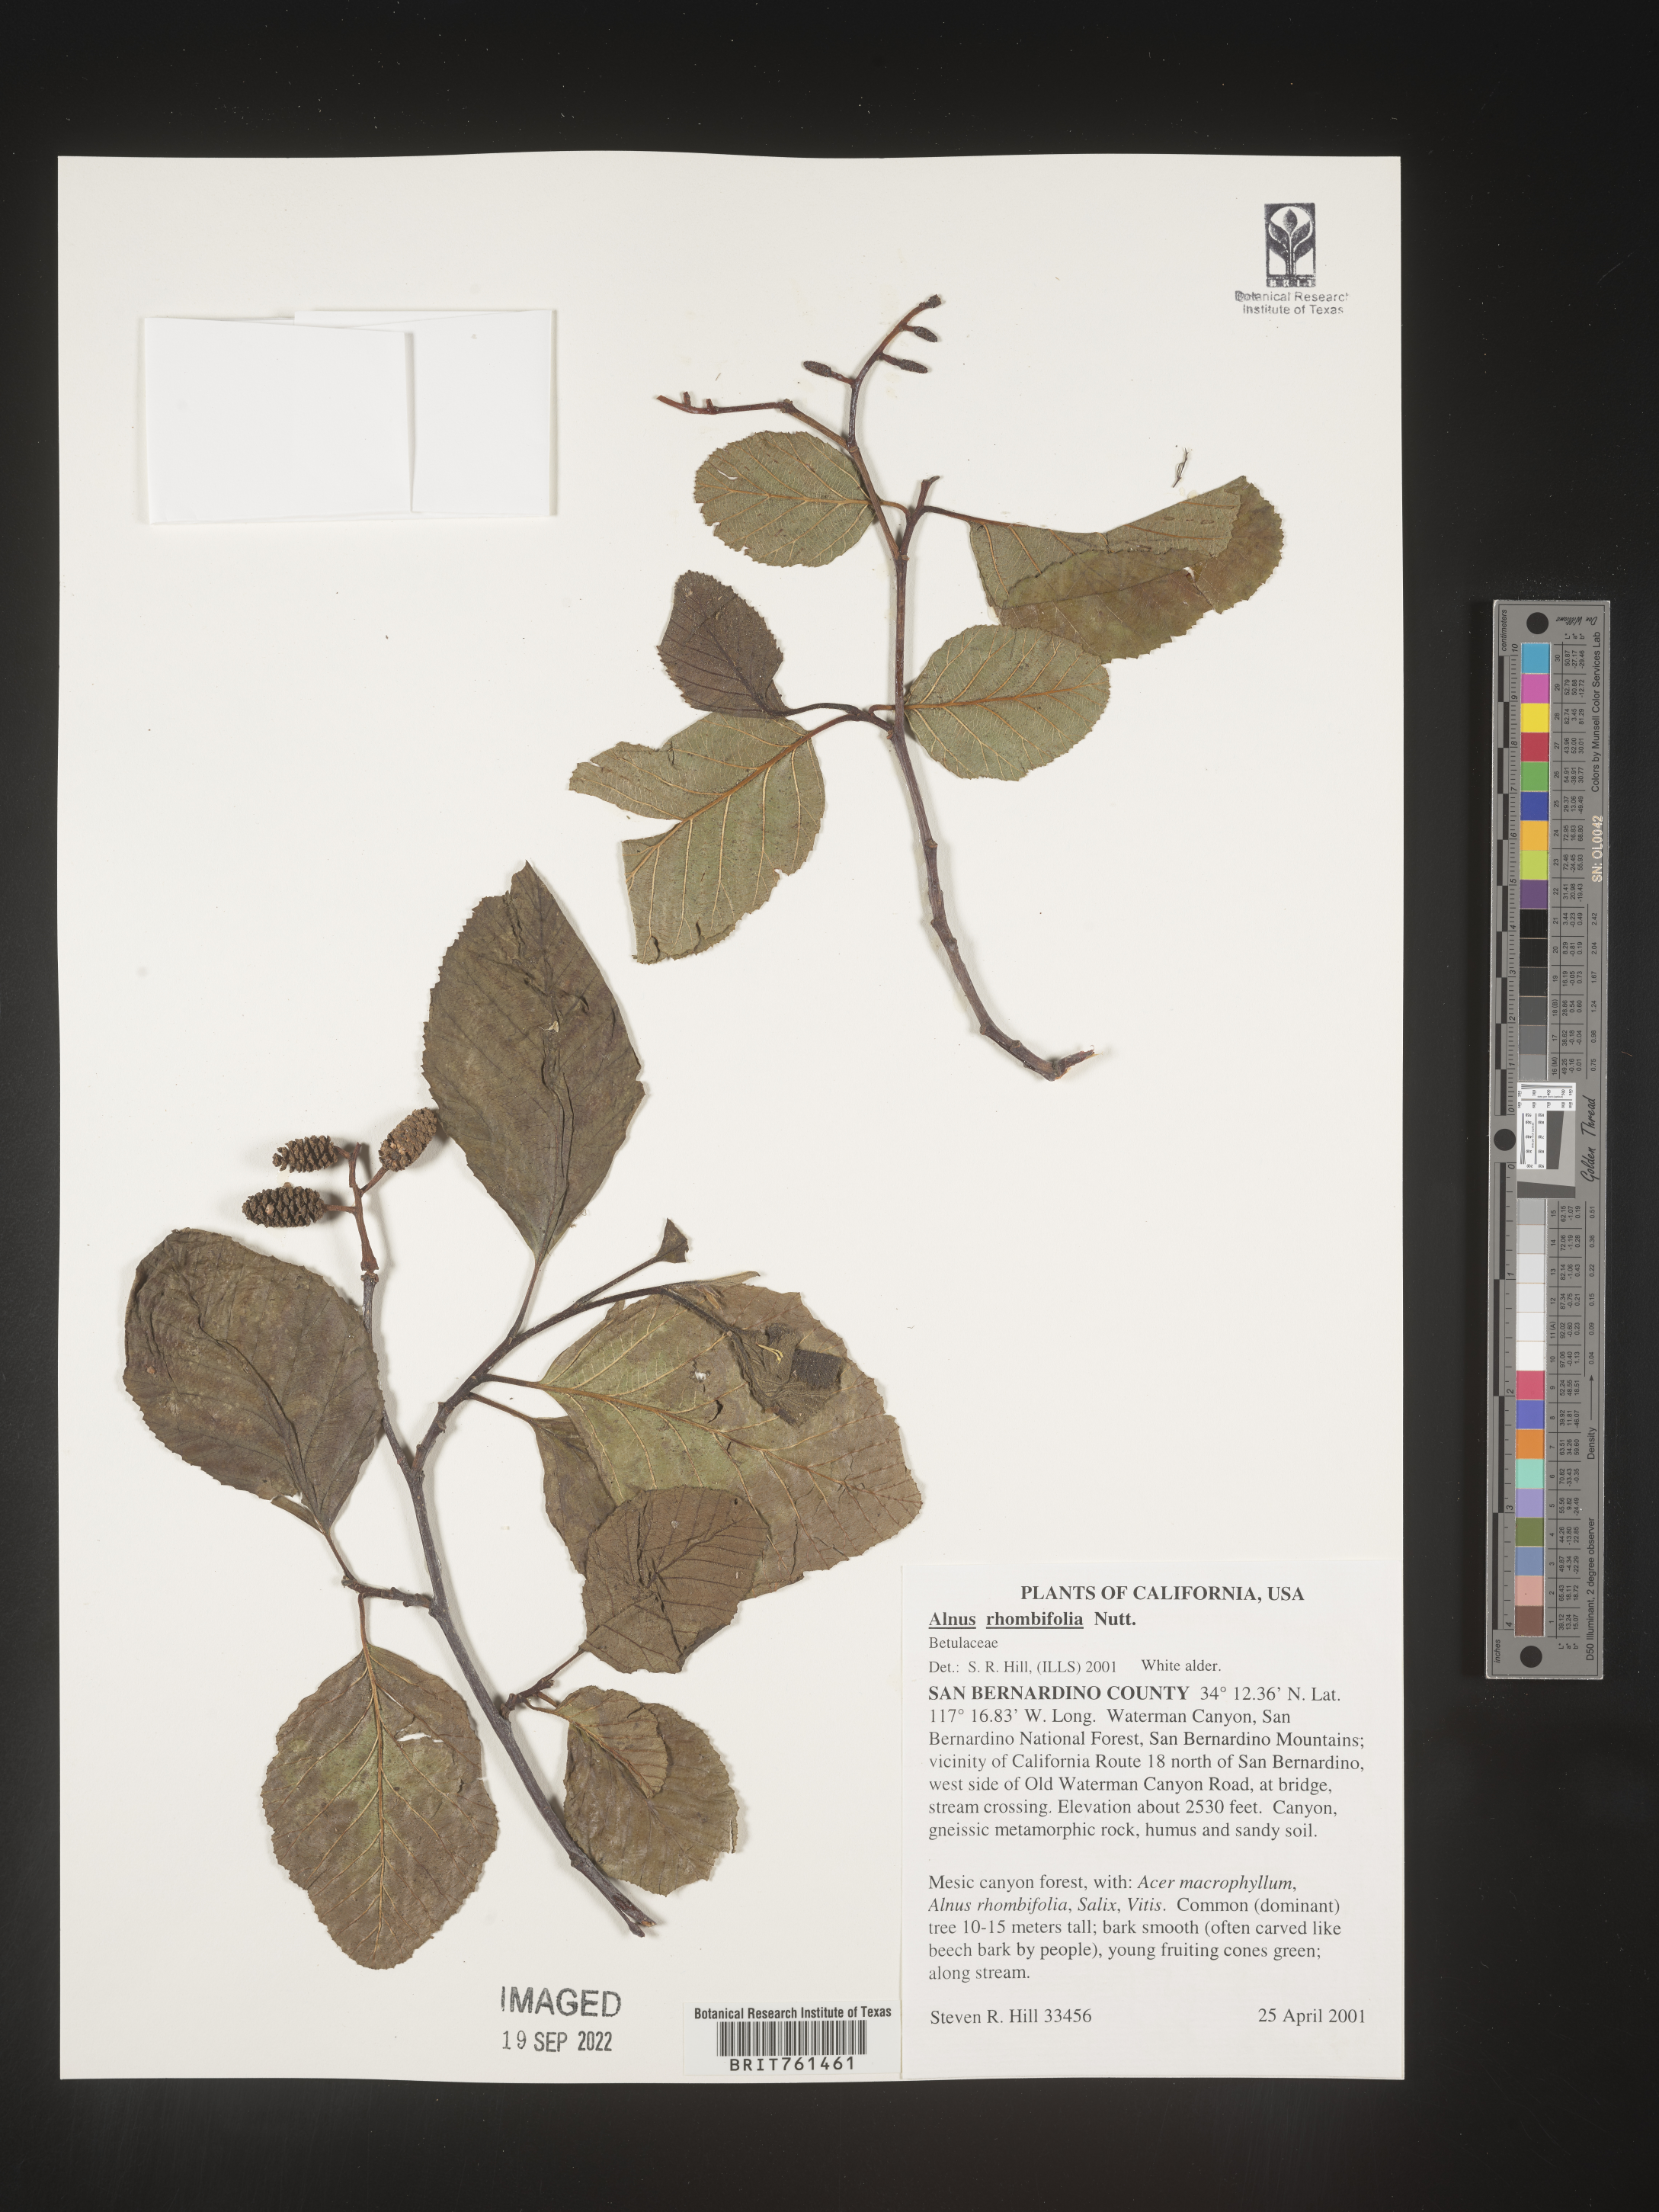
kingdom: Plantae
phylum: Tracheophyta
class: Magnoliopsida
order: Fagales
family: Betulaceae
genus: Alnus
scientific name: Alnus rhombifolia
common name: California alder
